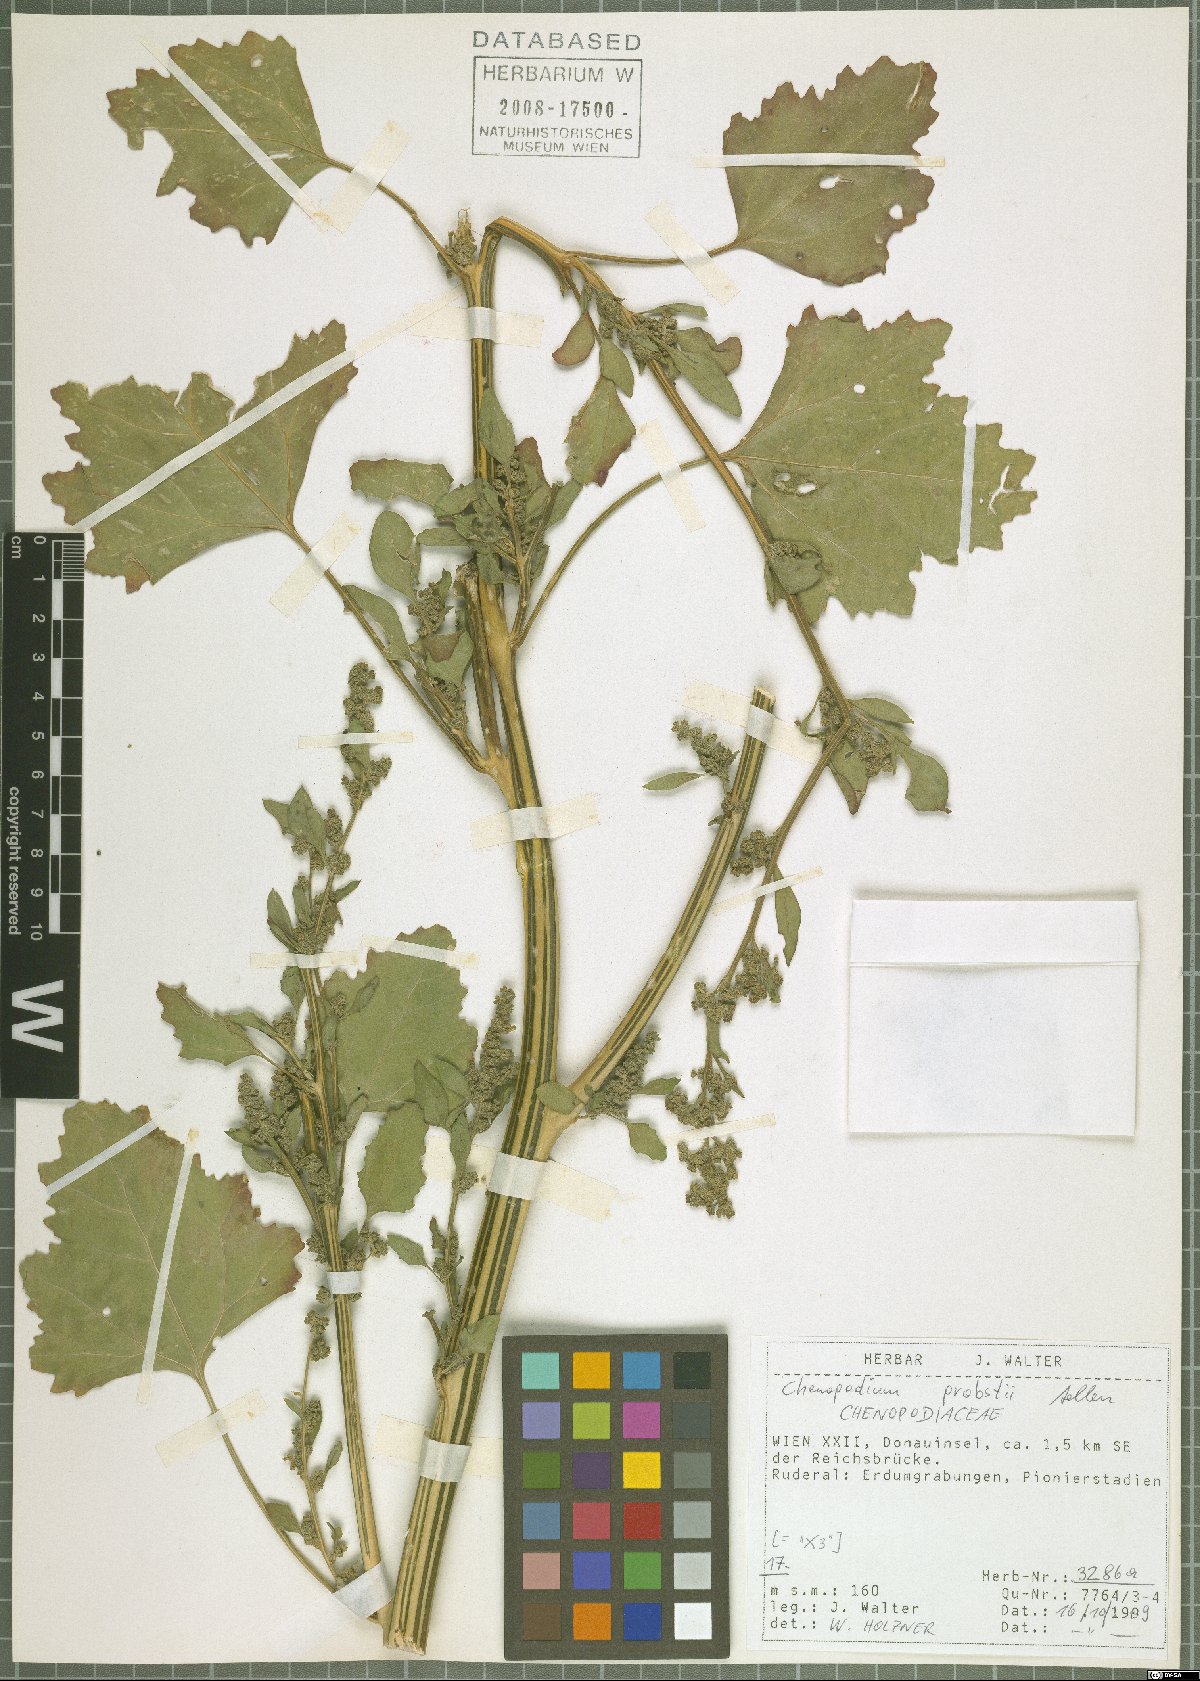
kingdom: Plantae
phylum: Tracheophyta
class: Magnoliopsida
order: Caryophyllales
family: Amaranthaceae
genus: Chenopodium
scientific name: Chenopodium probstii
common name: Probst's goosefoot
